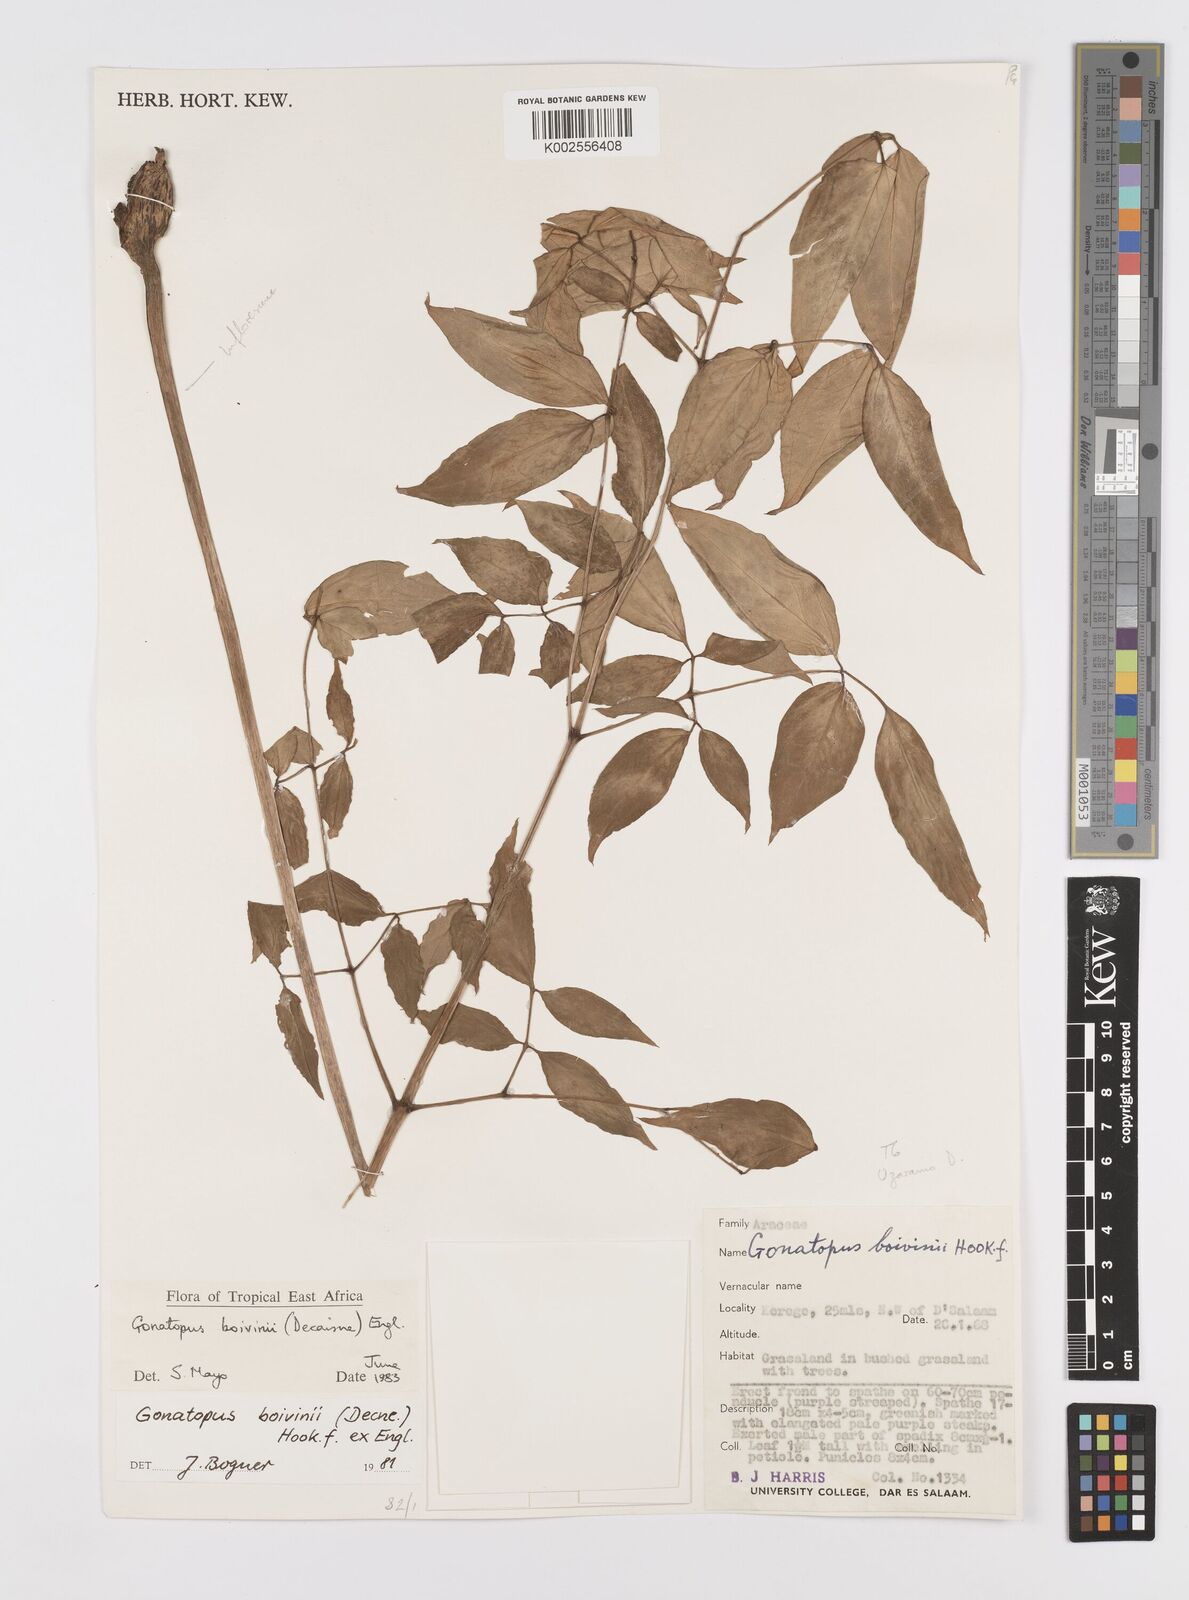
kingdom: Plantae
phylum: Tracheophyta
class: Liliopsida
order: Alismatales
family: Araceae
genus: Gonatopus
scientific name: Gonatopus boivinii
